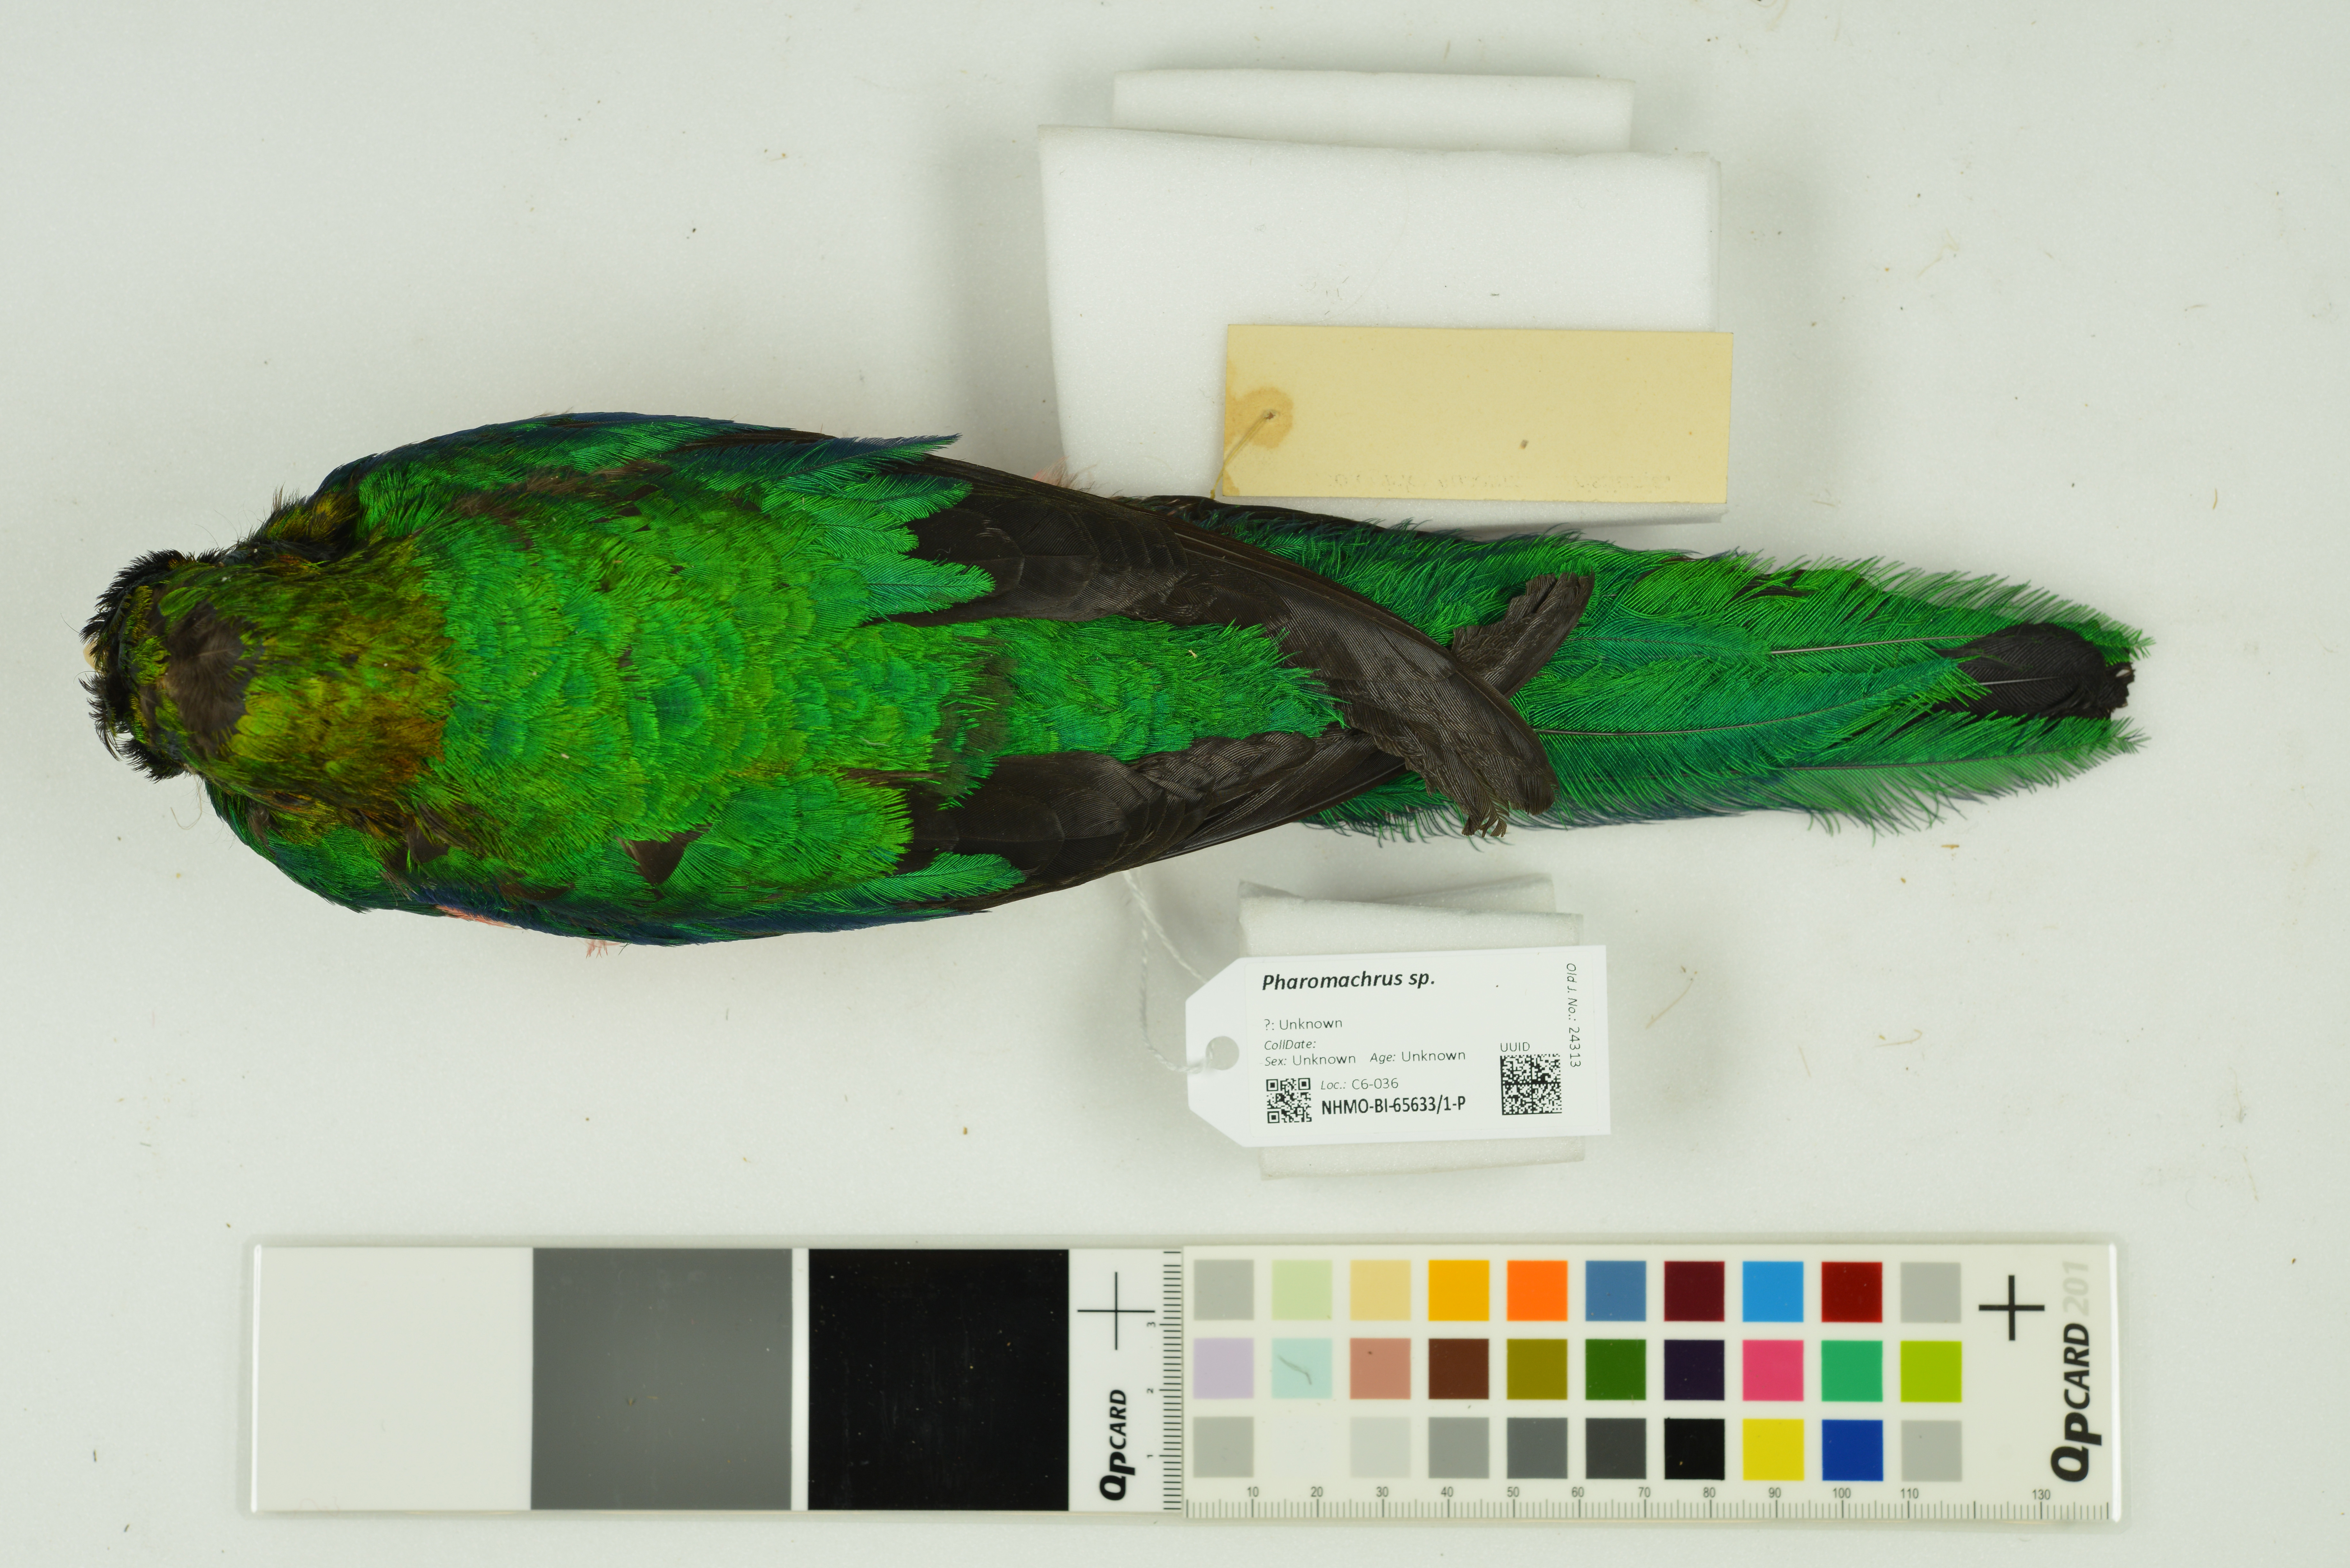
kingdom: Animalia
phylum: Chordata
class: Aves
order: Trogoniformes
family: Trogonidae
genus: Pharomachrus
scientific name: Pharomachrus
